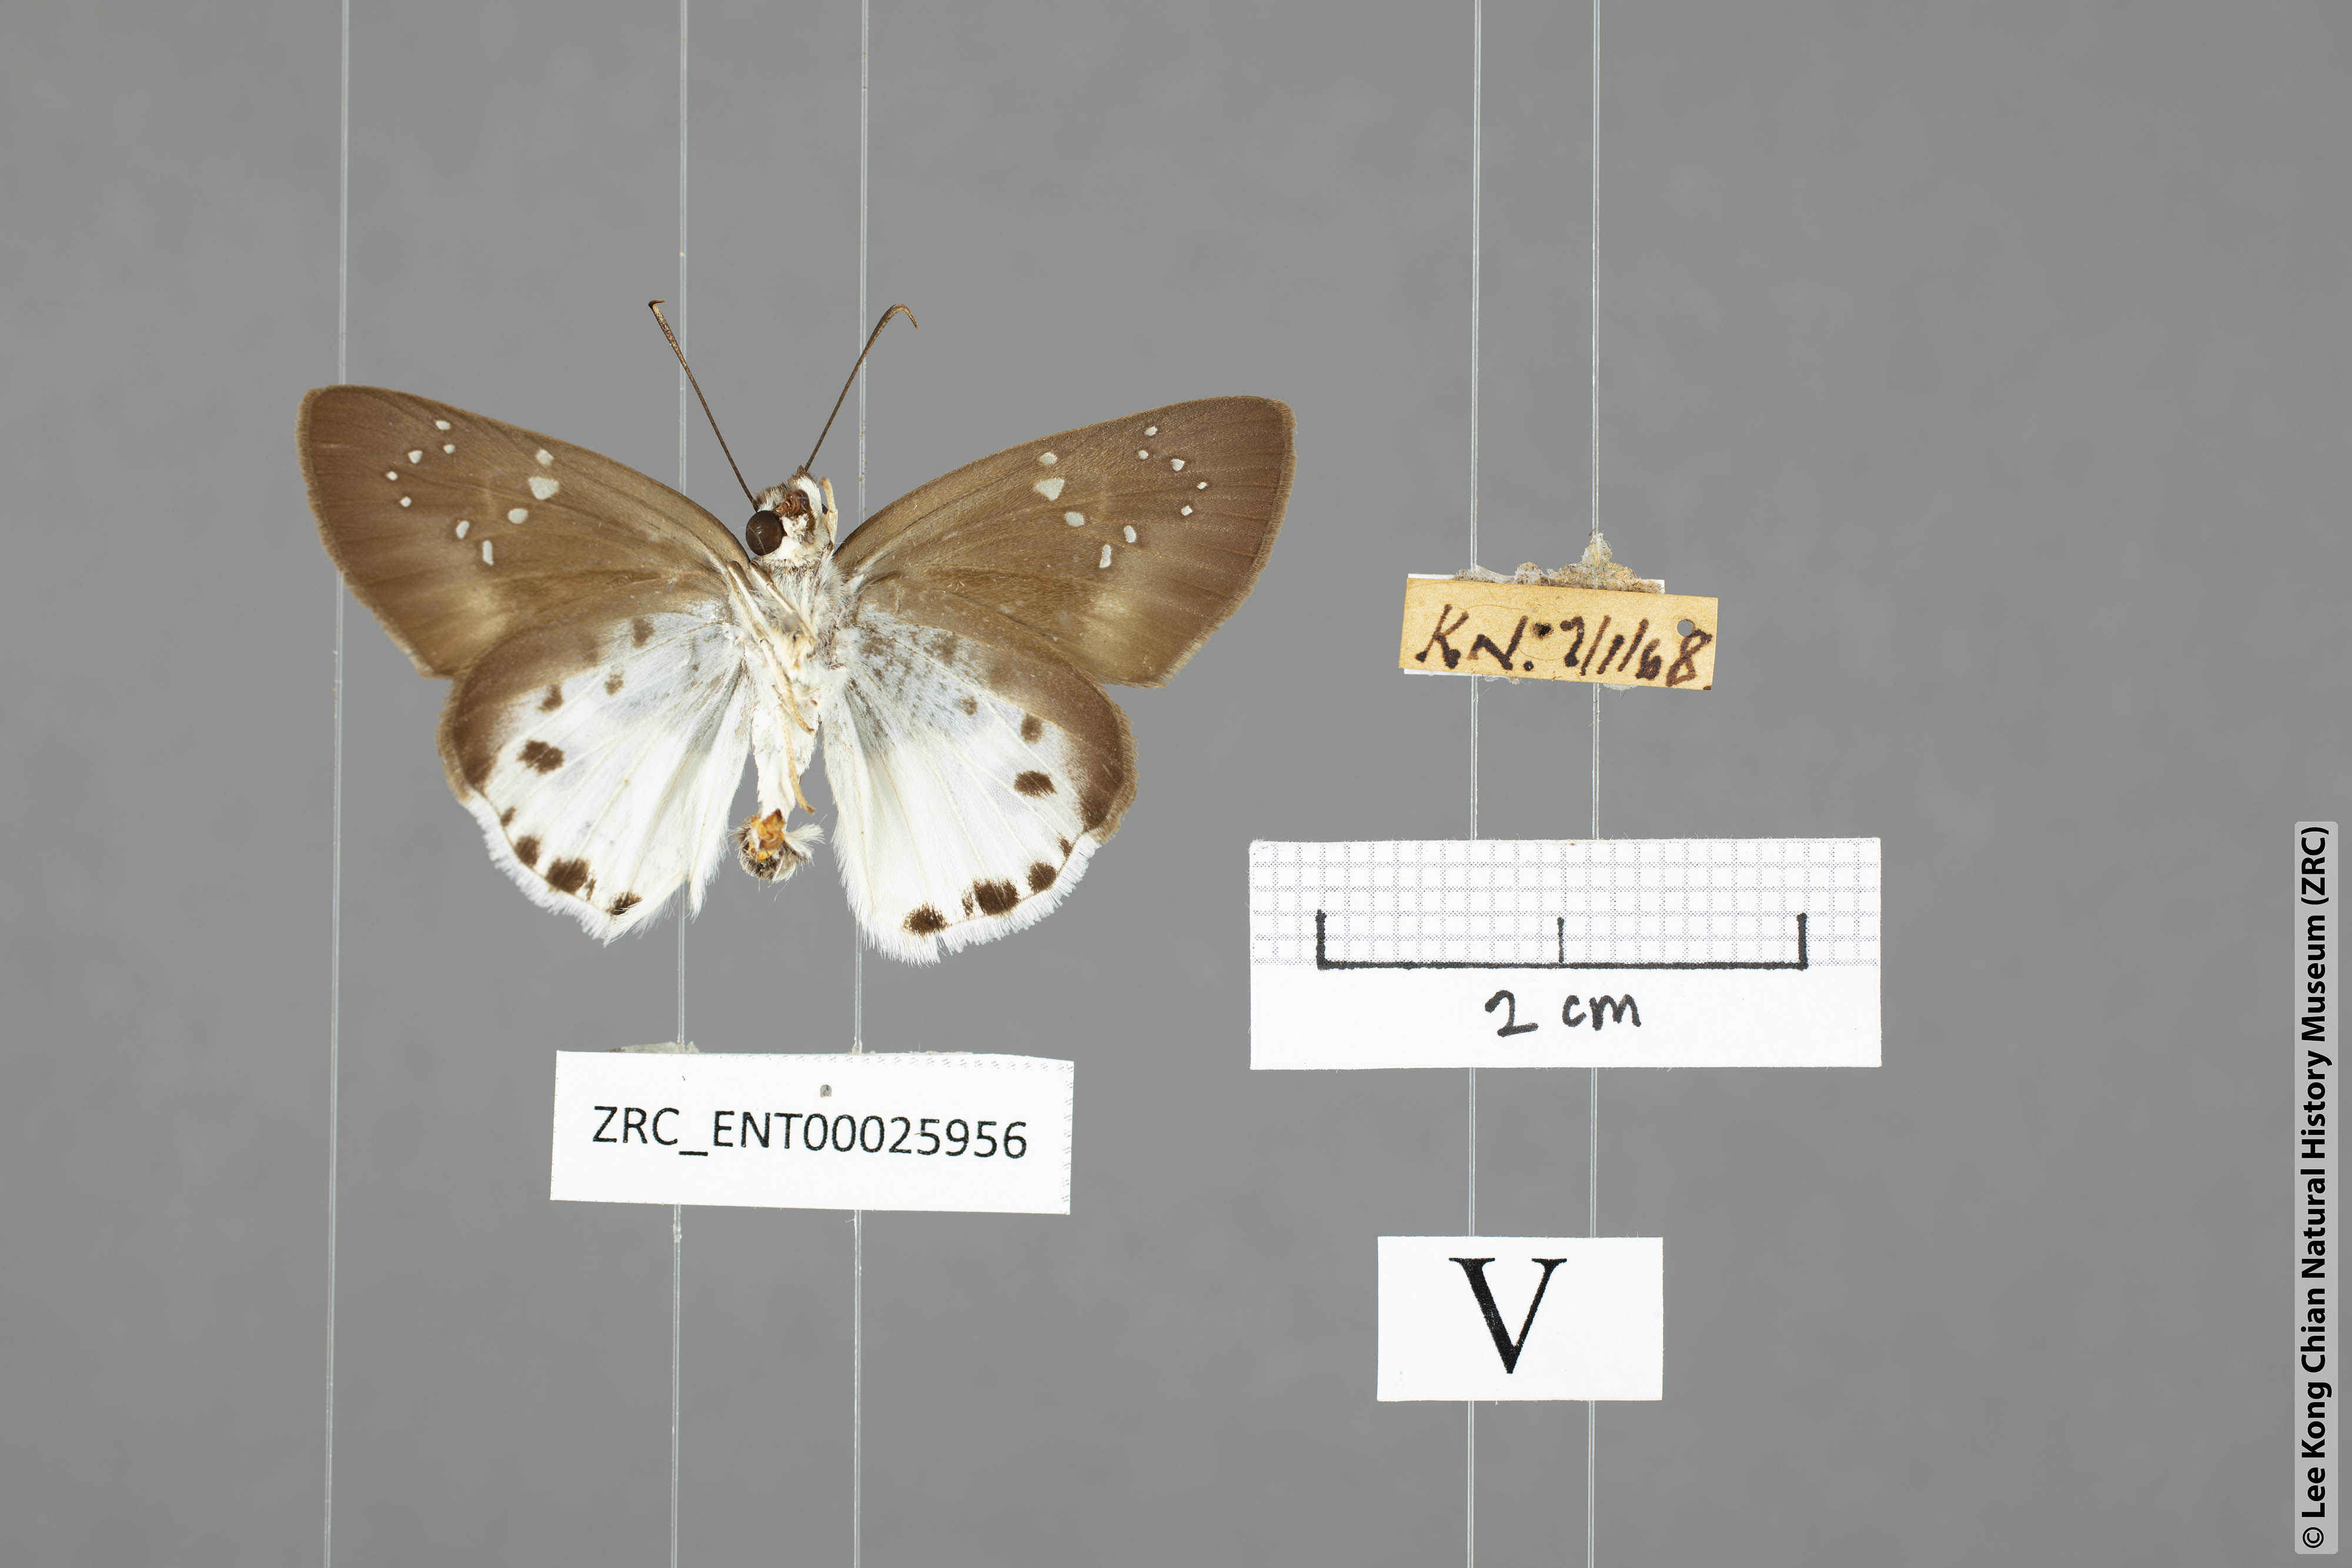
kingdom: Animalia
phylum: Arthropoda
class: Insecta
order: Lepidoptera
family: Hesperiidae
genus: Tagiades
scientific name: Tagiades calligana
